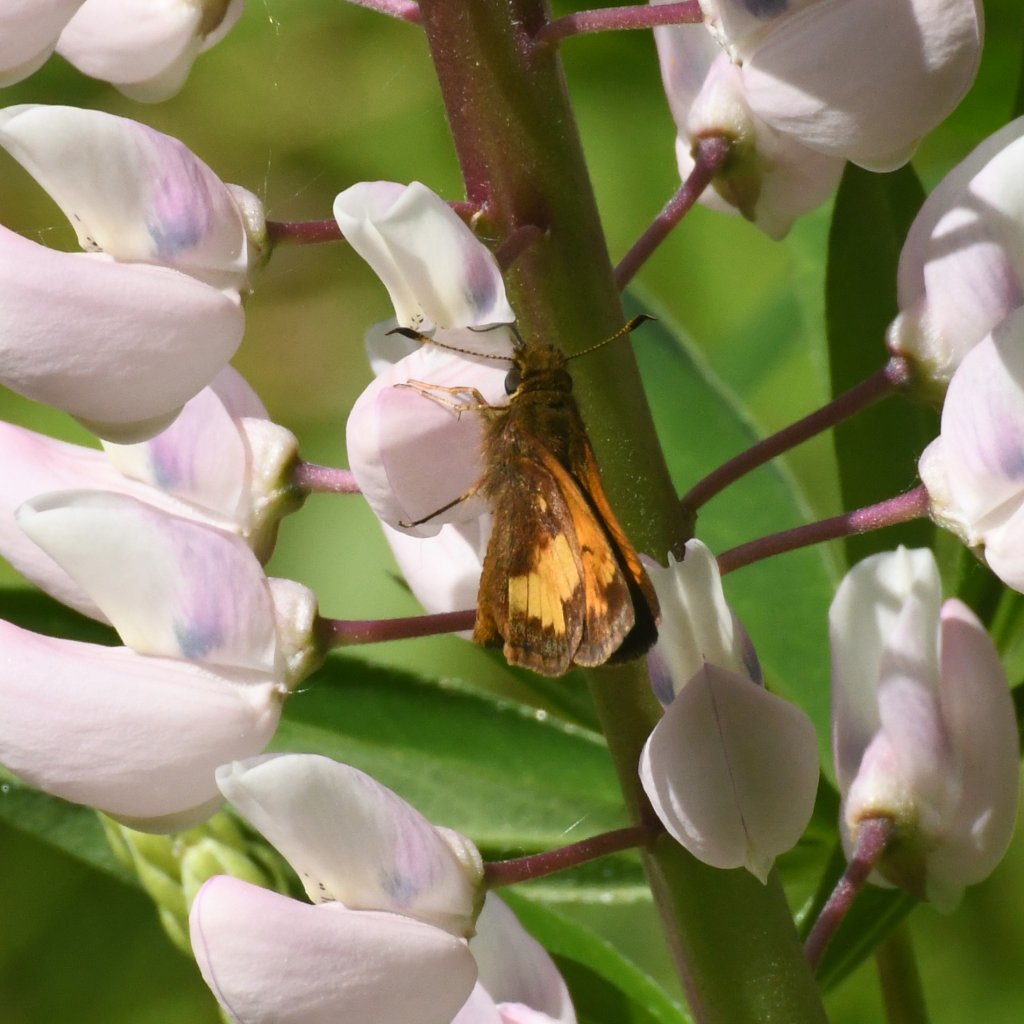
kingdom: Animalia
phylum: Arthropoda
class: Insecta
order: Lepidoptera
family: Hesperiidae
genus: Lon
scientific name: Lon hobomok
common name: Hobomok Skipper
